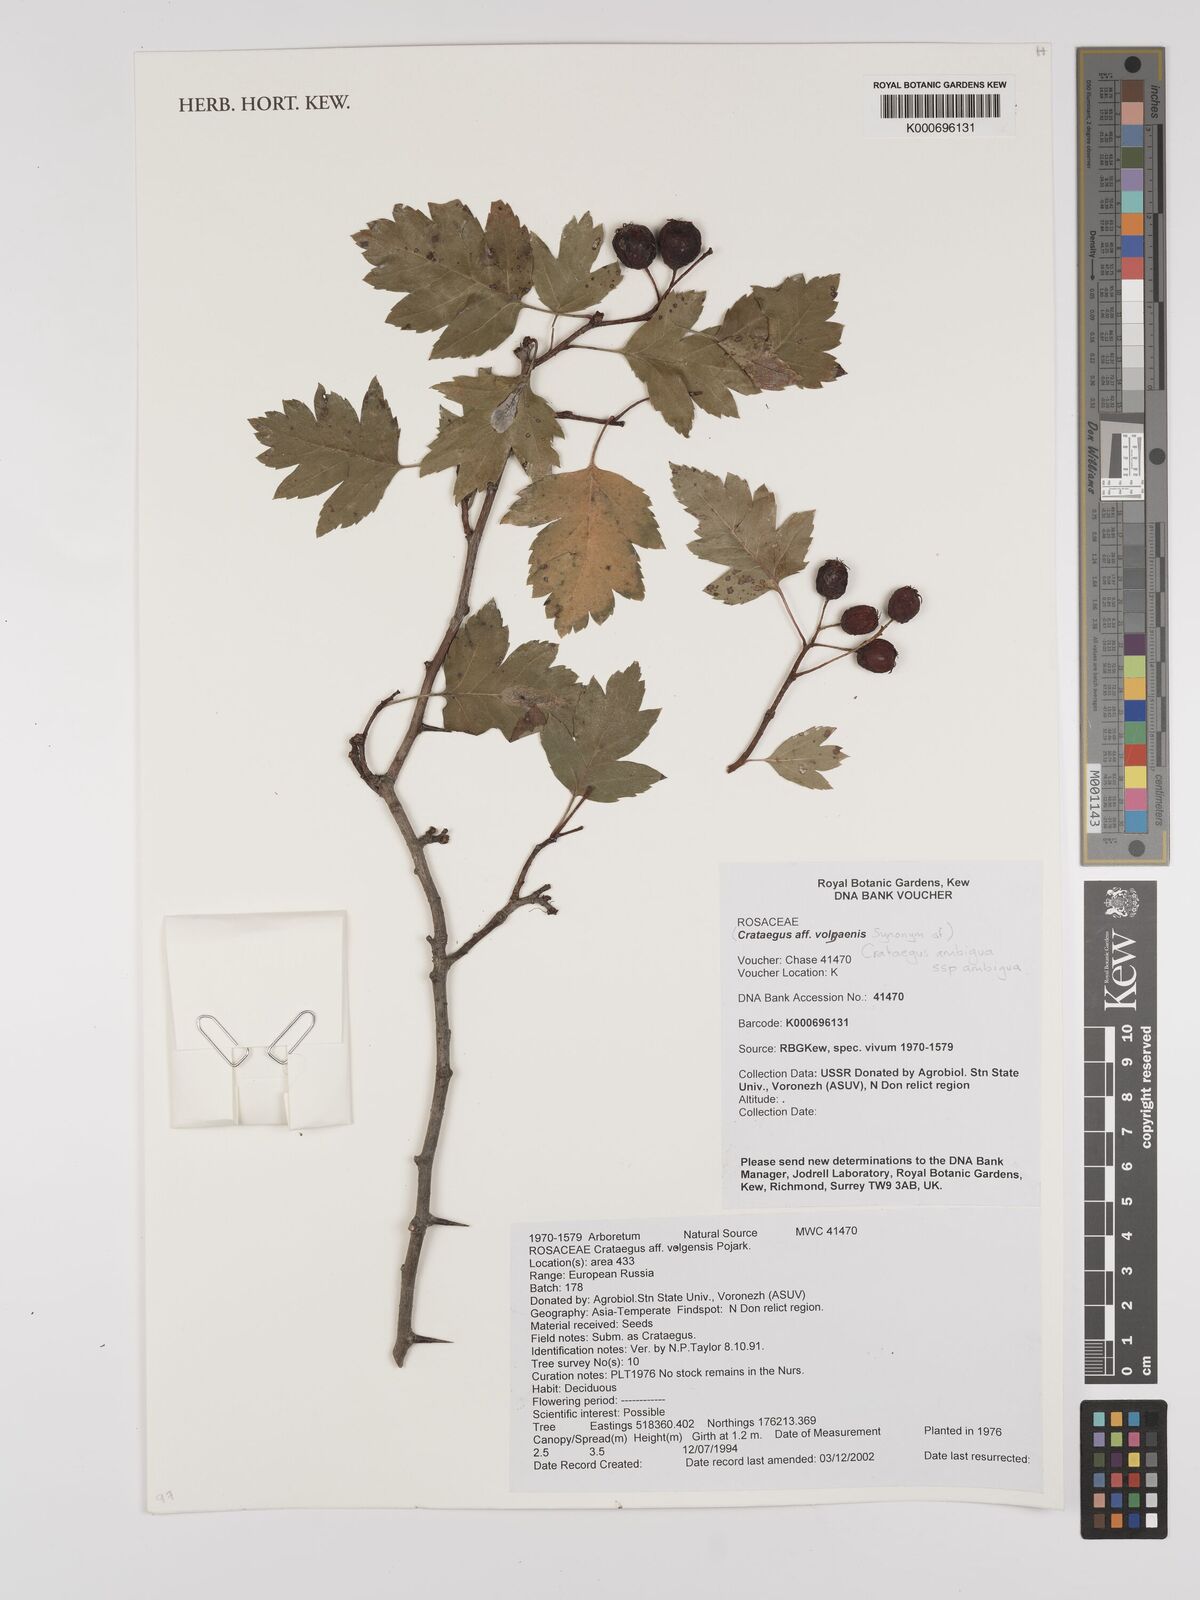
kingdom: Plantae
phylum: Tracheophyta
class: Magnoliopsida
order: Rosales
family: Rosaceae
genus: Crataegus
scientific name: Crataegus ambigua
